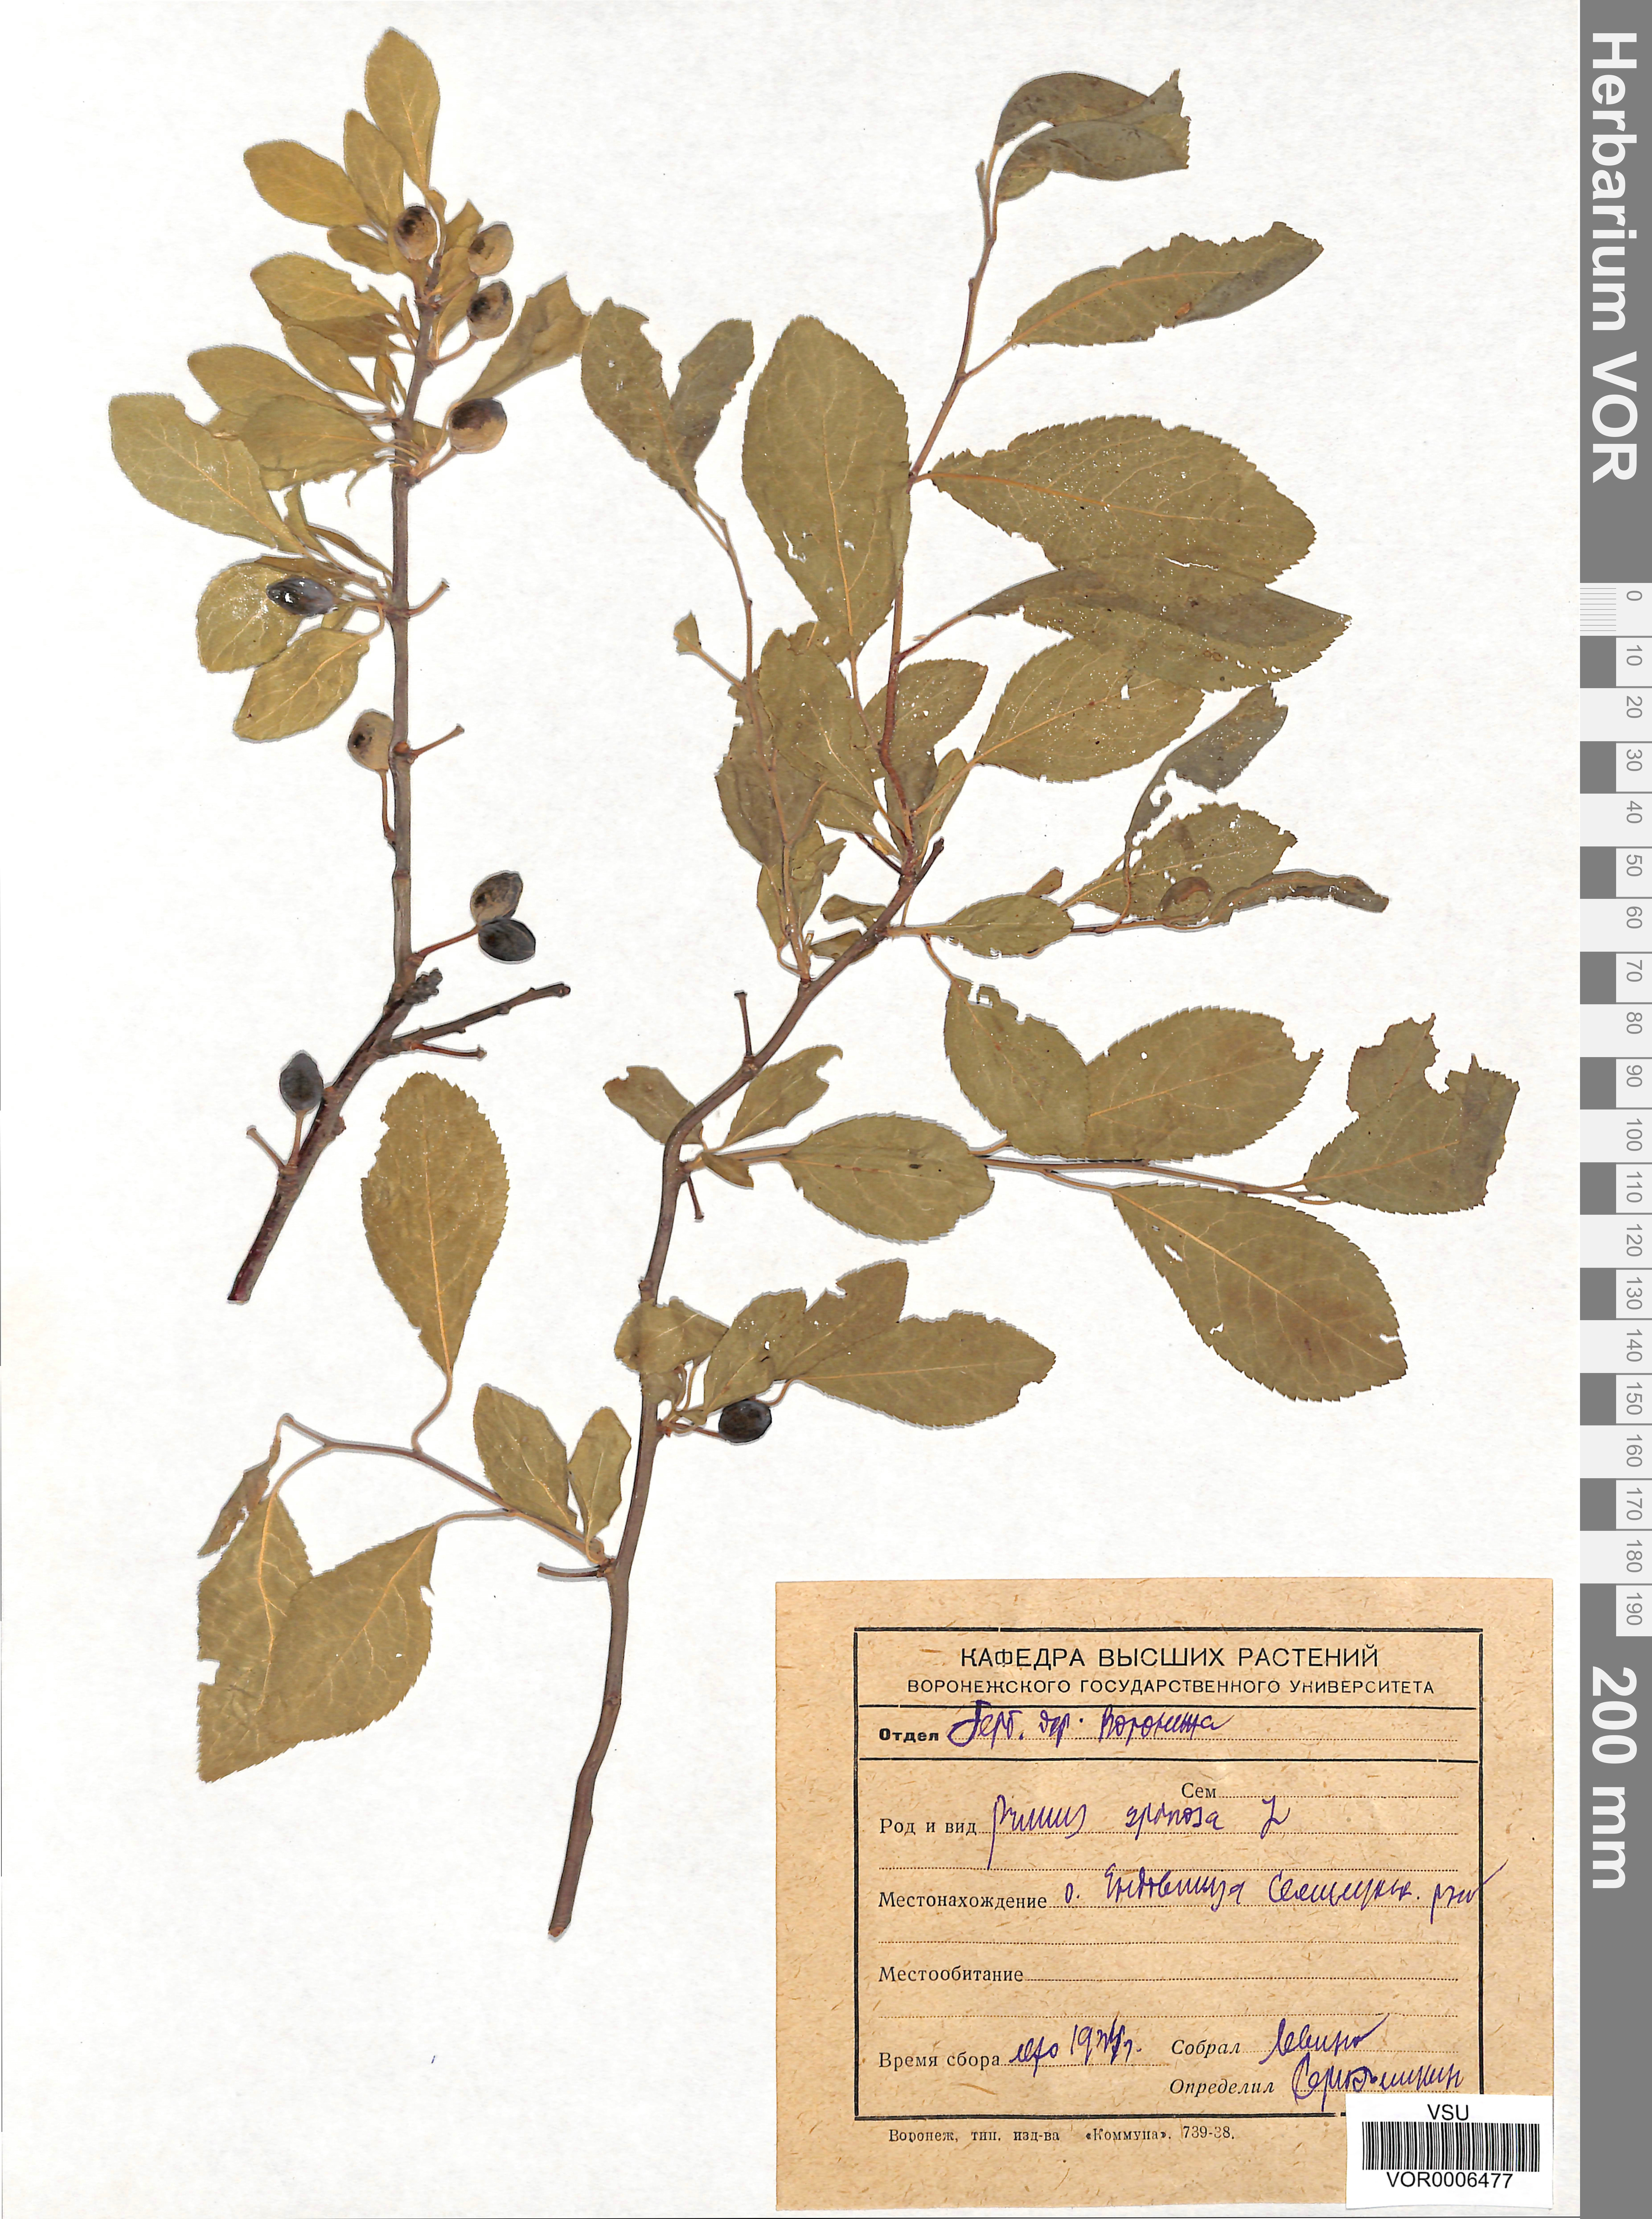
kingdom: Plantae
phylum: Tracheophyta
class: Magnoliopsida
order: Rosales
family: Rosaceae
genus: Prunus
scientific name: Prunus spinosa
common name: Blackthorn
